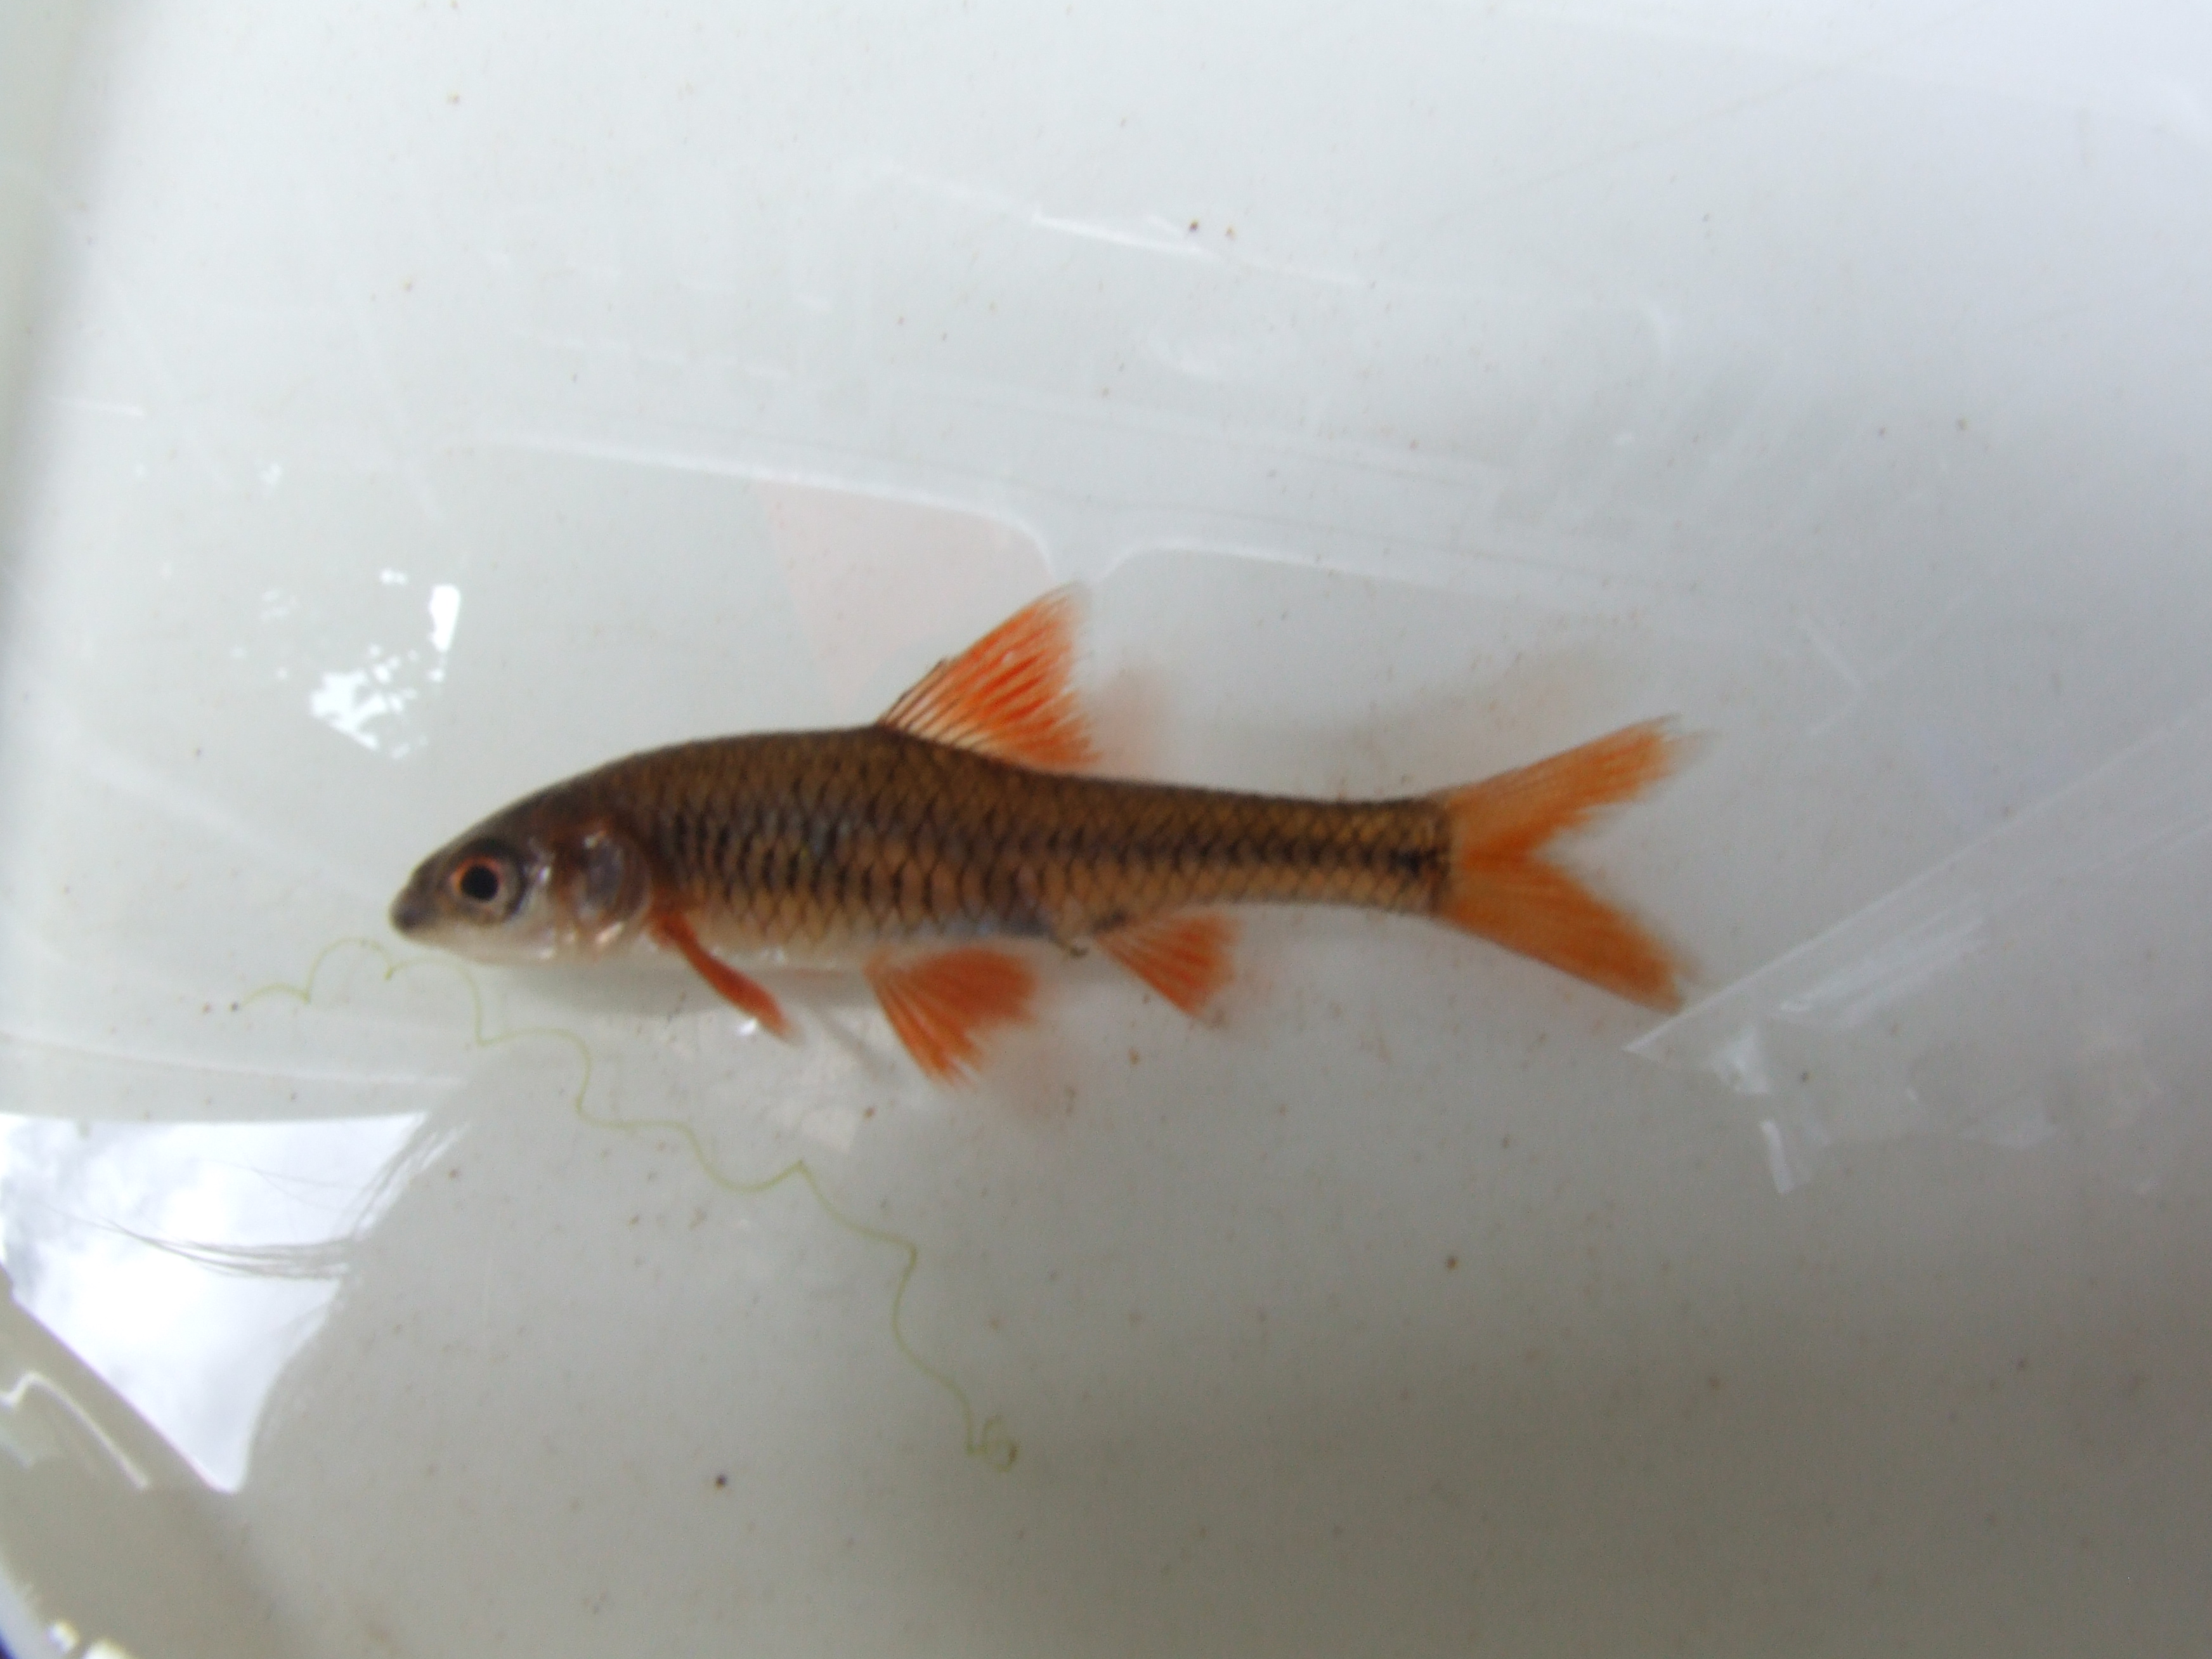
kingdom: Animalia
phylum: Chordata
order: Cypriniformes
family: Cyprinidae
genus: Clypeobarbus
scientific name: Clypeobarbus bellcrossi
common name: Gorgeous barb
